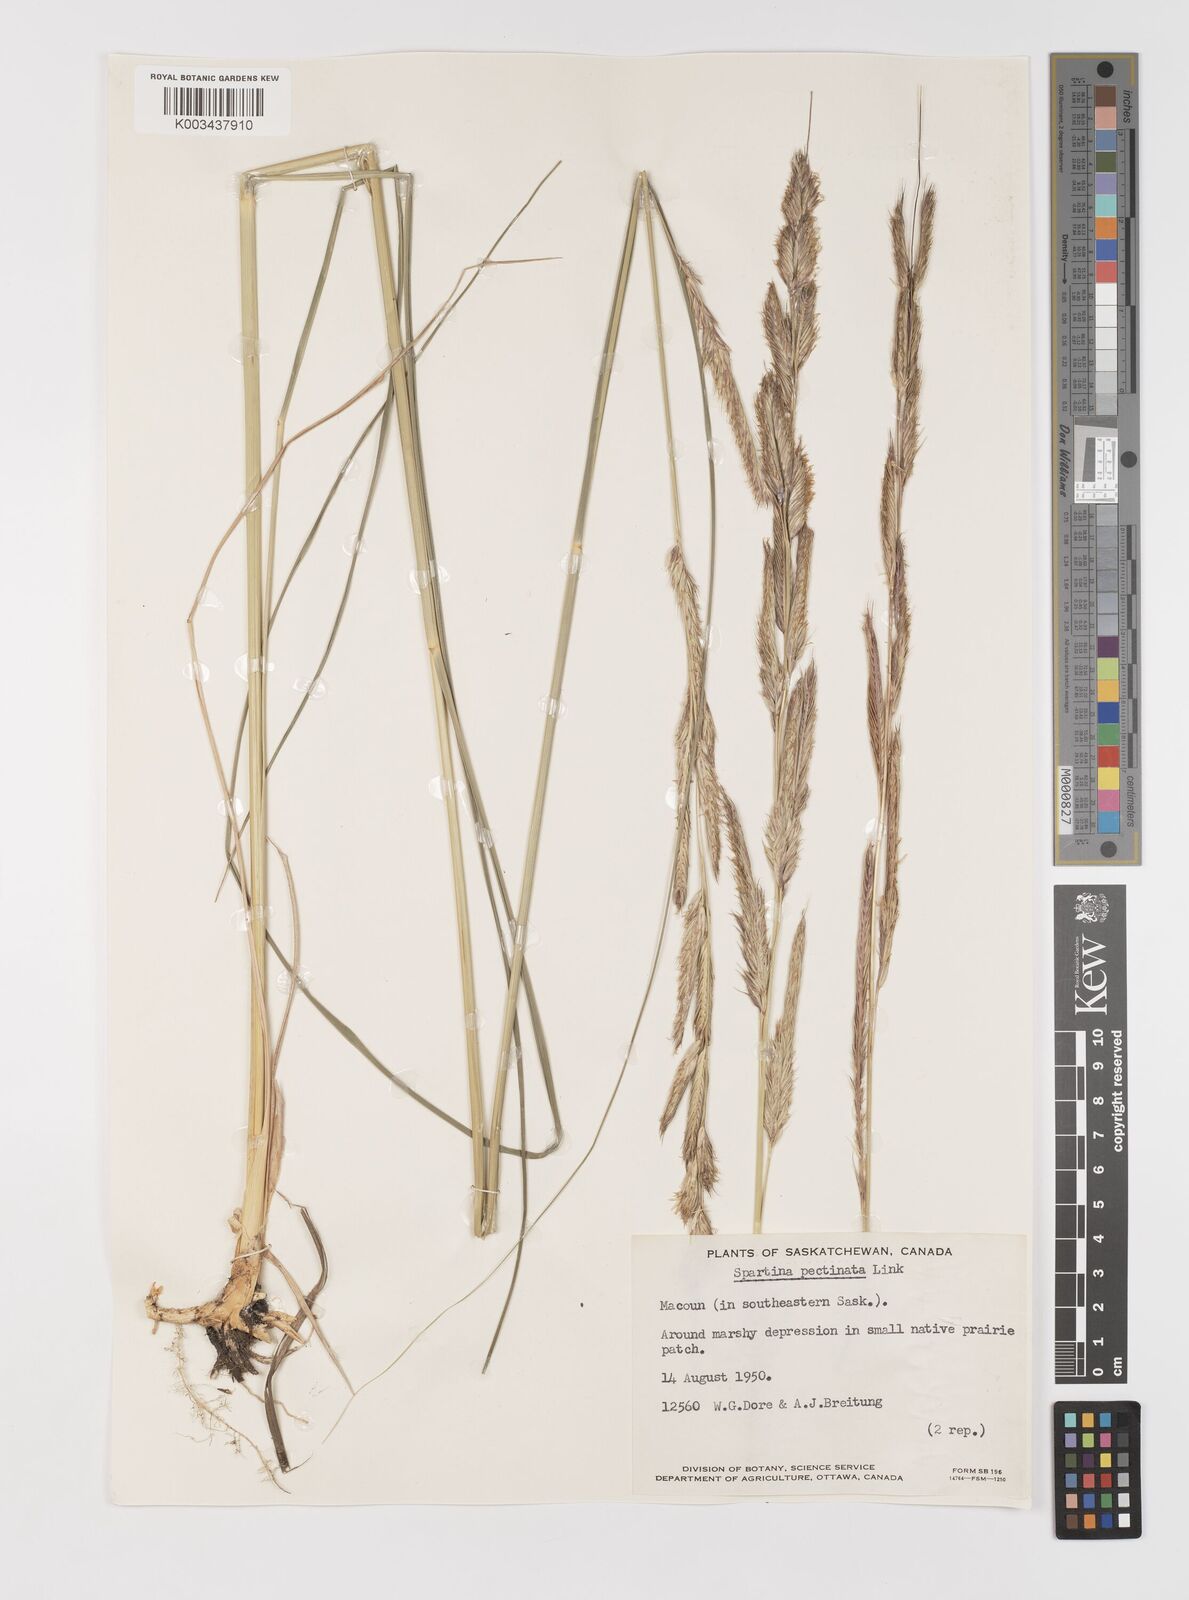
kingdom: Plantae
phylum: Tracheophyta
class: Liliopsida
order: Poales
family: Poaceae
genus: Sporobolus
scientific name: Sporobolus michauxianus
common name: Freshwater cordgrass
